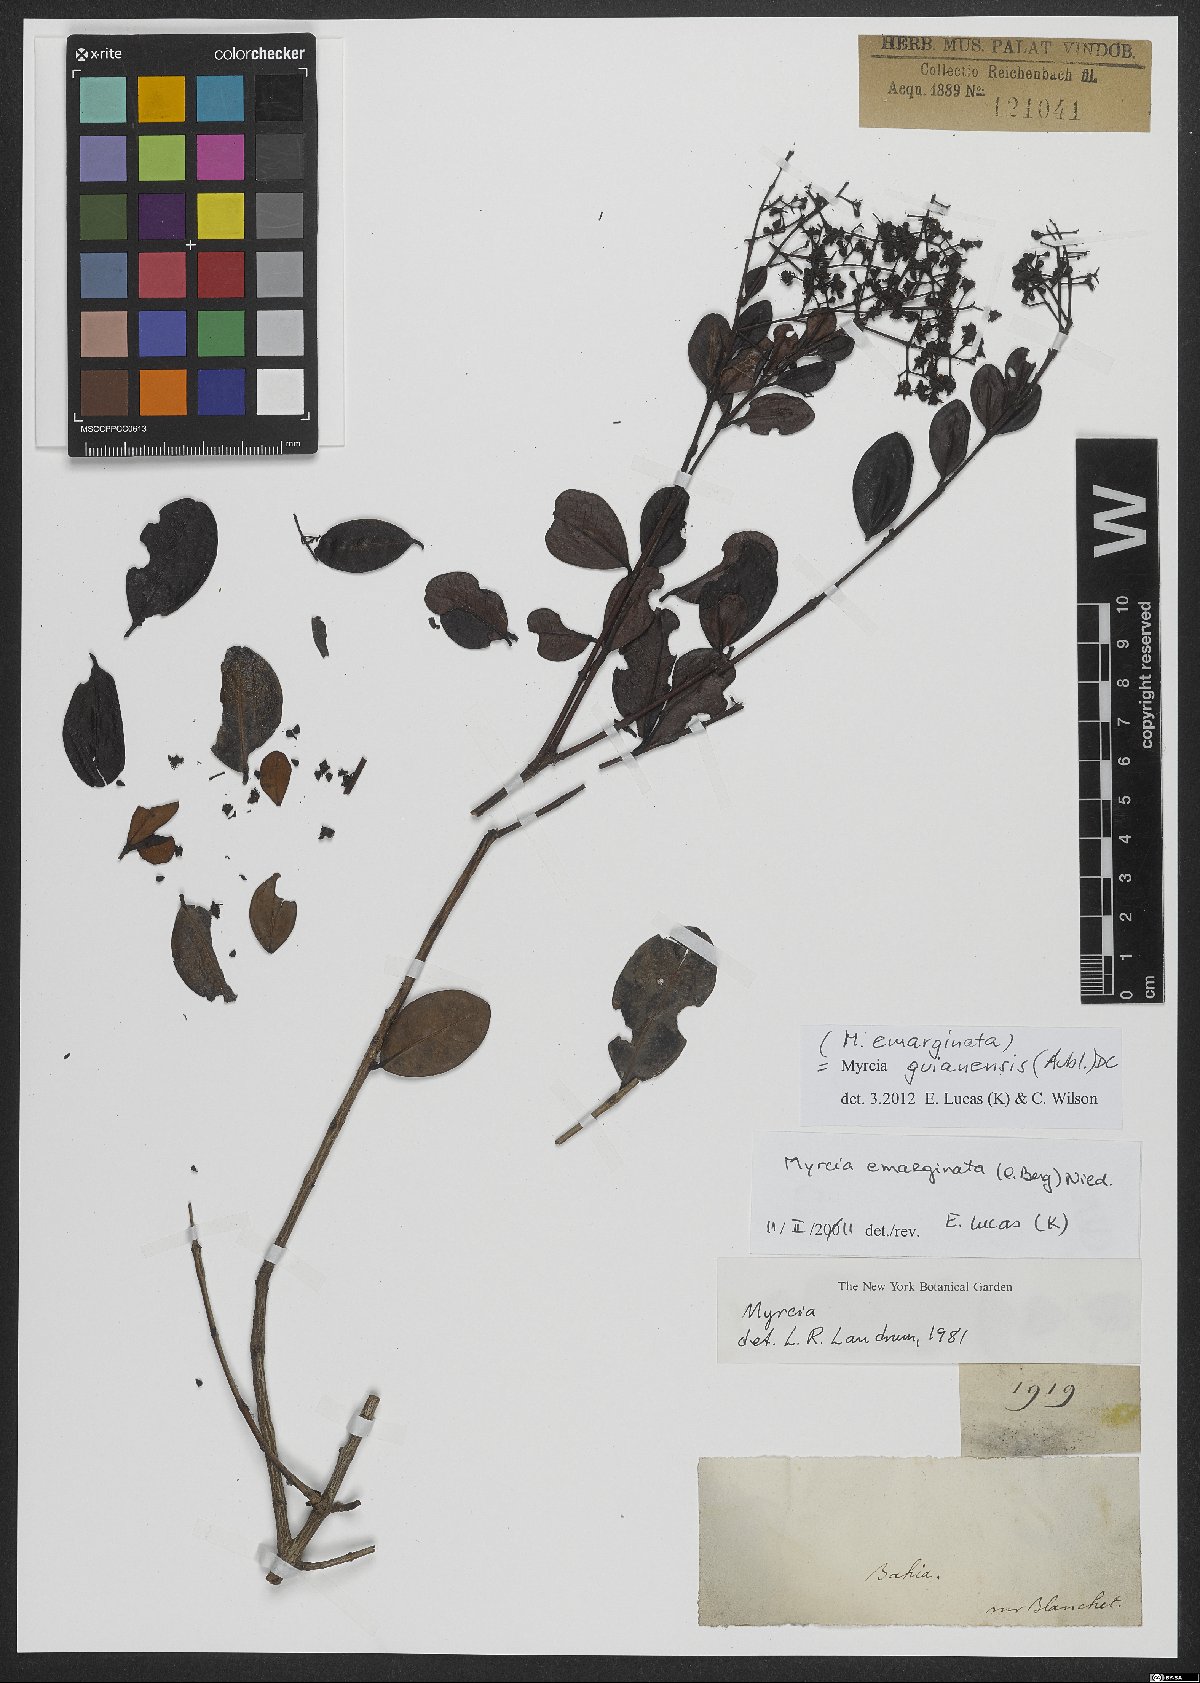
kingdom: Plantae
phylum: Tracheophyta
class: Magnoliopsida
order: Myrtales
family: Myrtaceae
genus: Myrcia
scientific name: Myrcia guianensis
